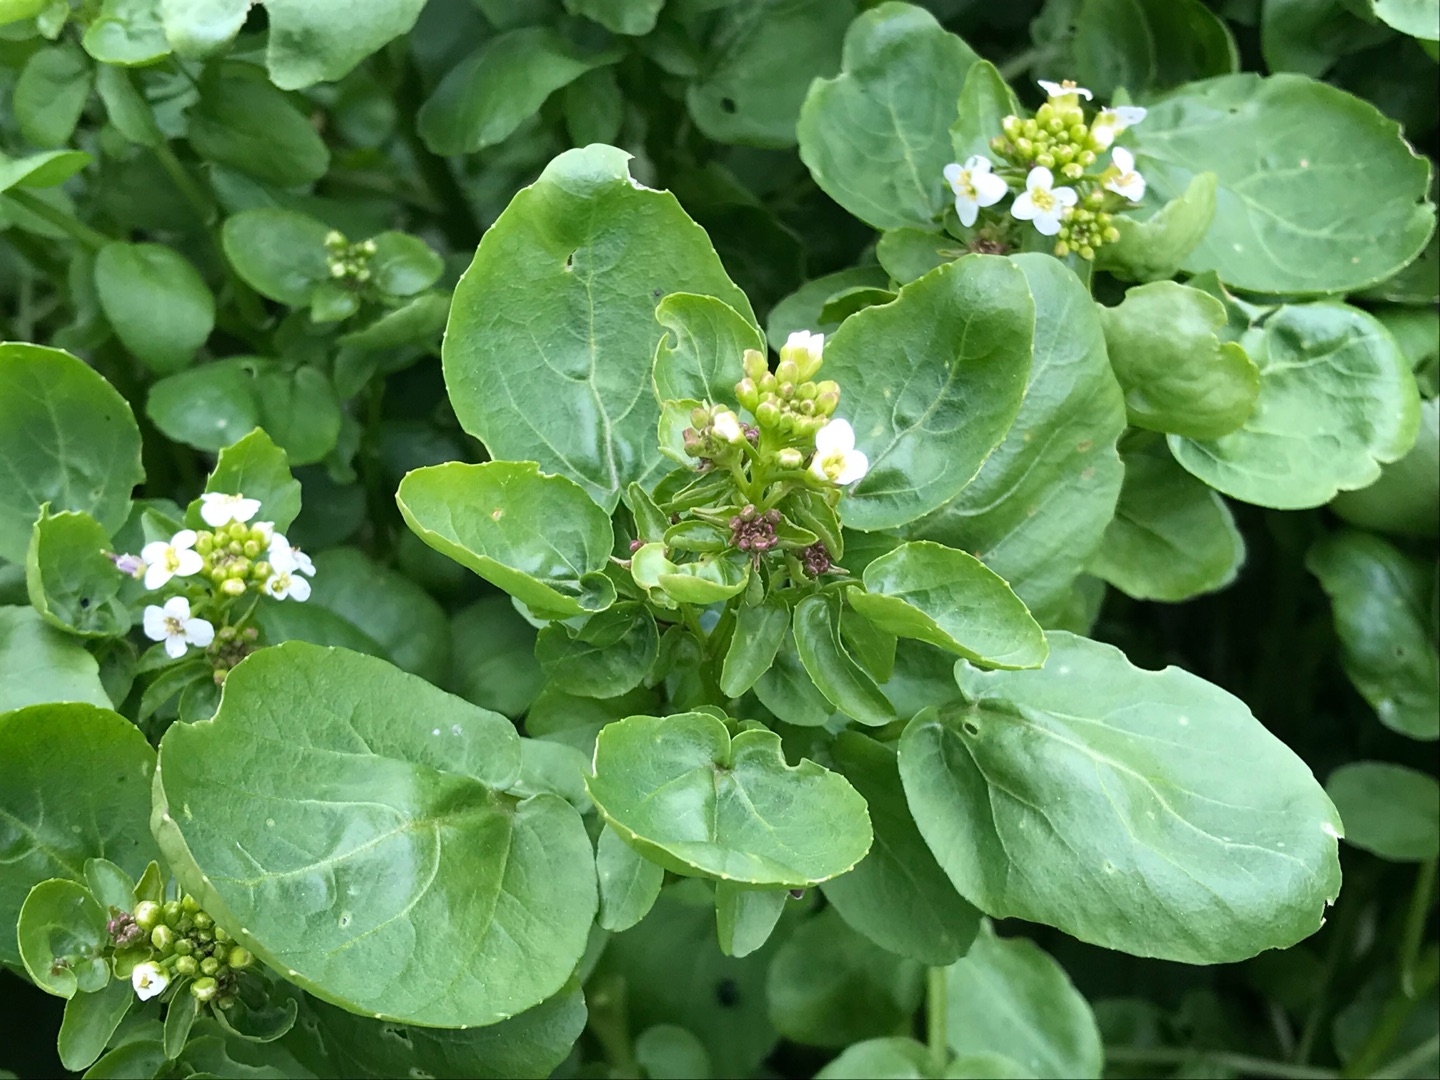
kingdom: Plantae
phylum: Tracheophyta
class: Magnoliopsida
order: Brassicales
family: Brassicaceae
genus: Nasturtium
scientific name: Nasturtium officinale
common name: Tykskulpet brøndkarse
